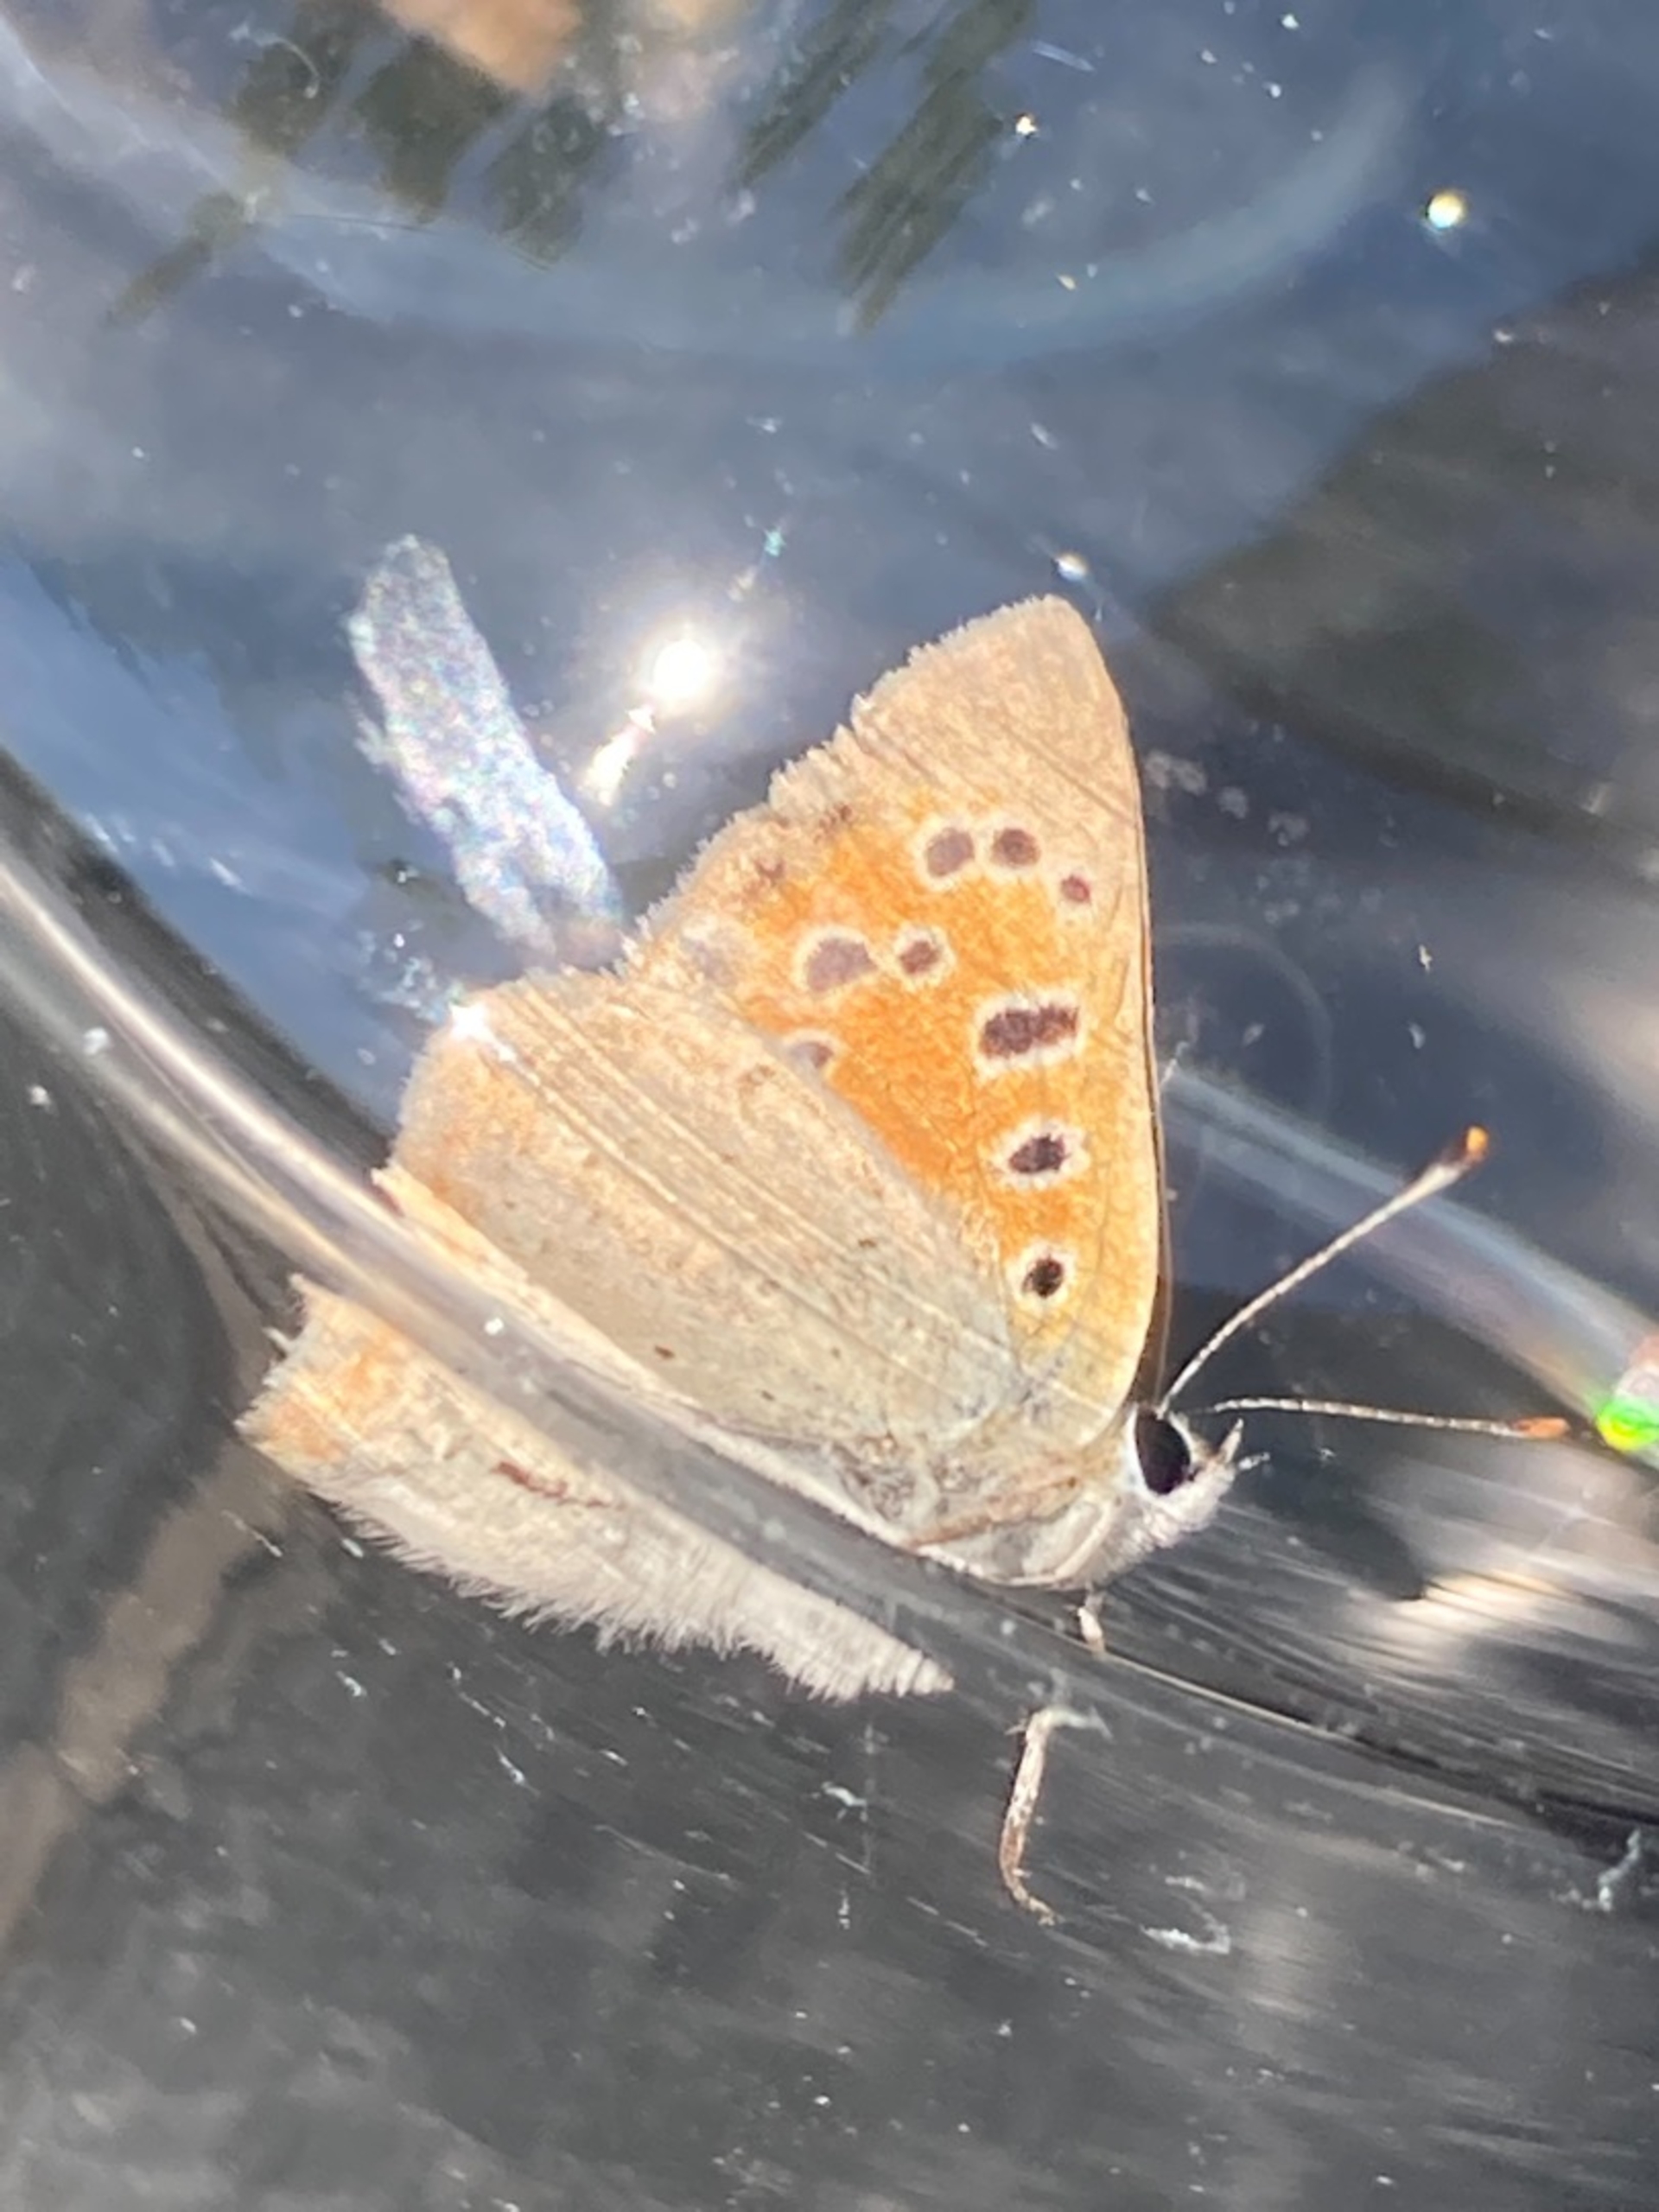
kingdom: Animalia
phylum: Arthropoda
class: Insecta
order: Lepidoptera
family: Lycaenidae
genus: Lycaena
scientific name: Lycaena phlaeas
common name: Lille ildfugl
